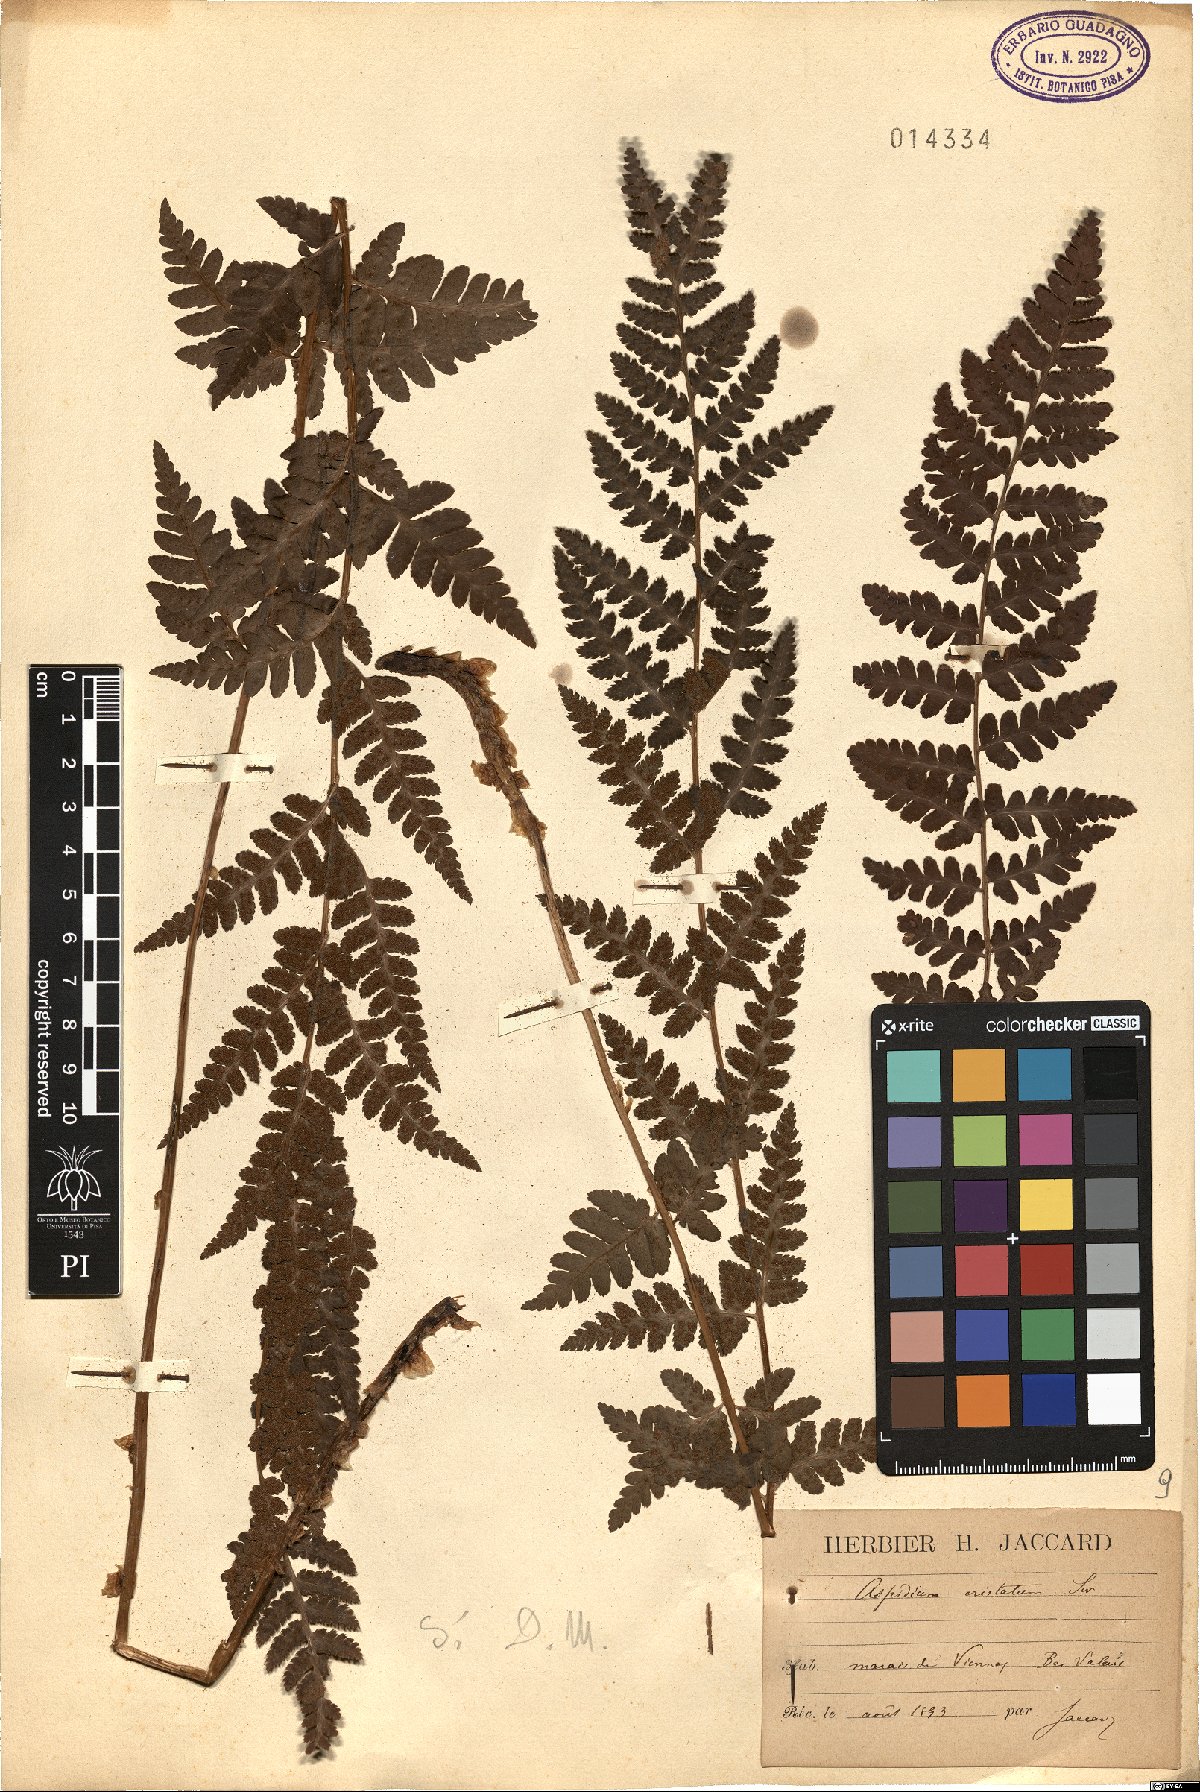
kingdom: Plantae
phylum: Tracheophyta
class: Polypodiopsida
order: Polypodiales
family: Dryopteridaceae
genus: Dryopteris
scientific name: Dryopteris cristata
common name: Crested wood fern
